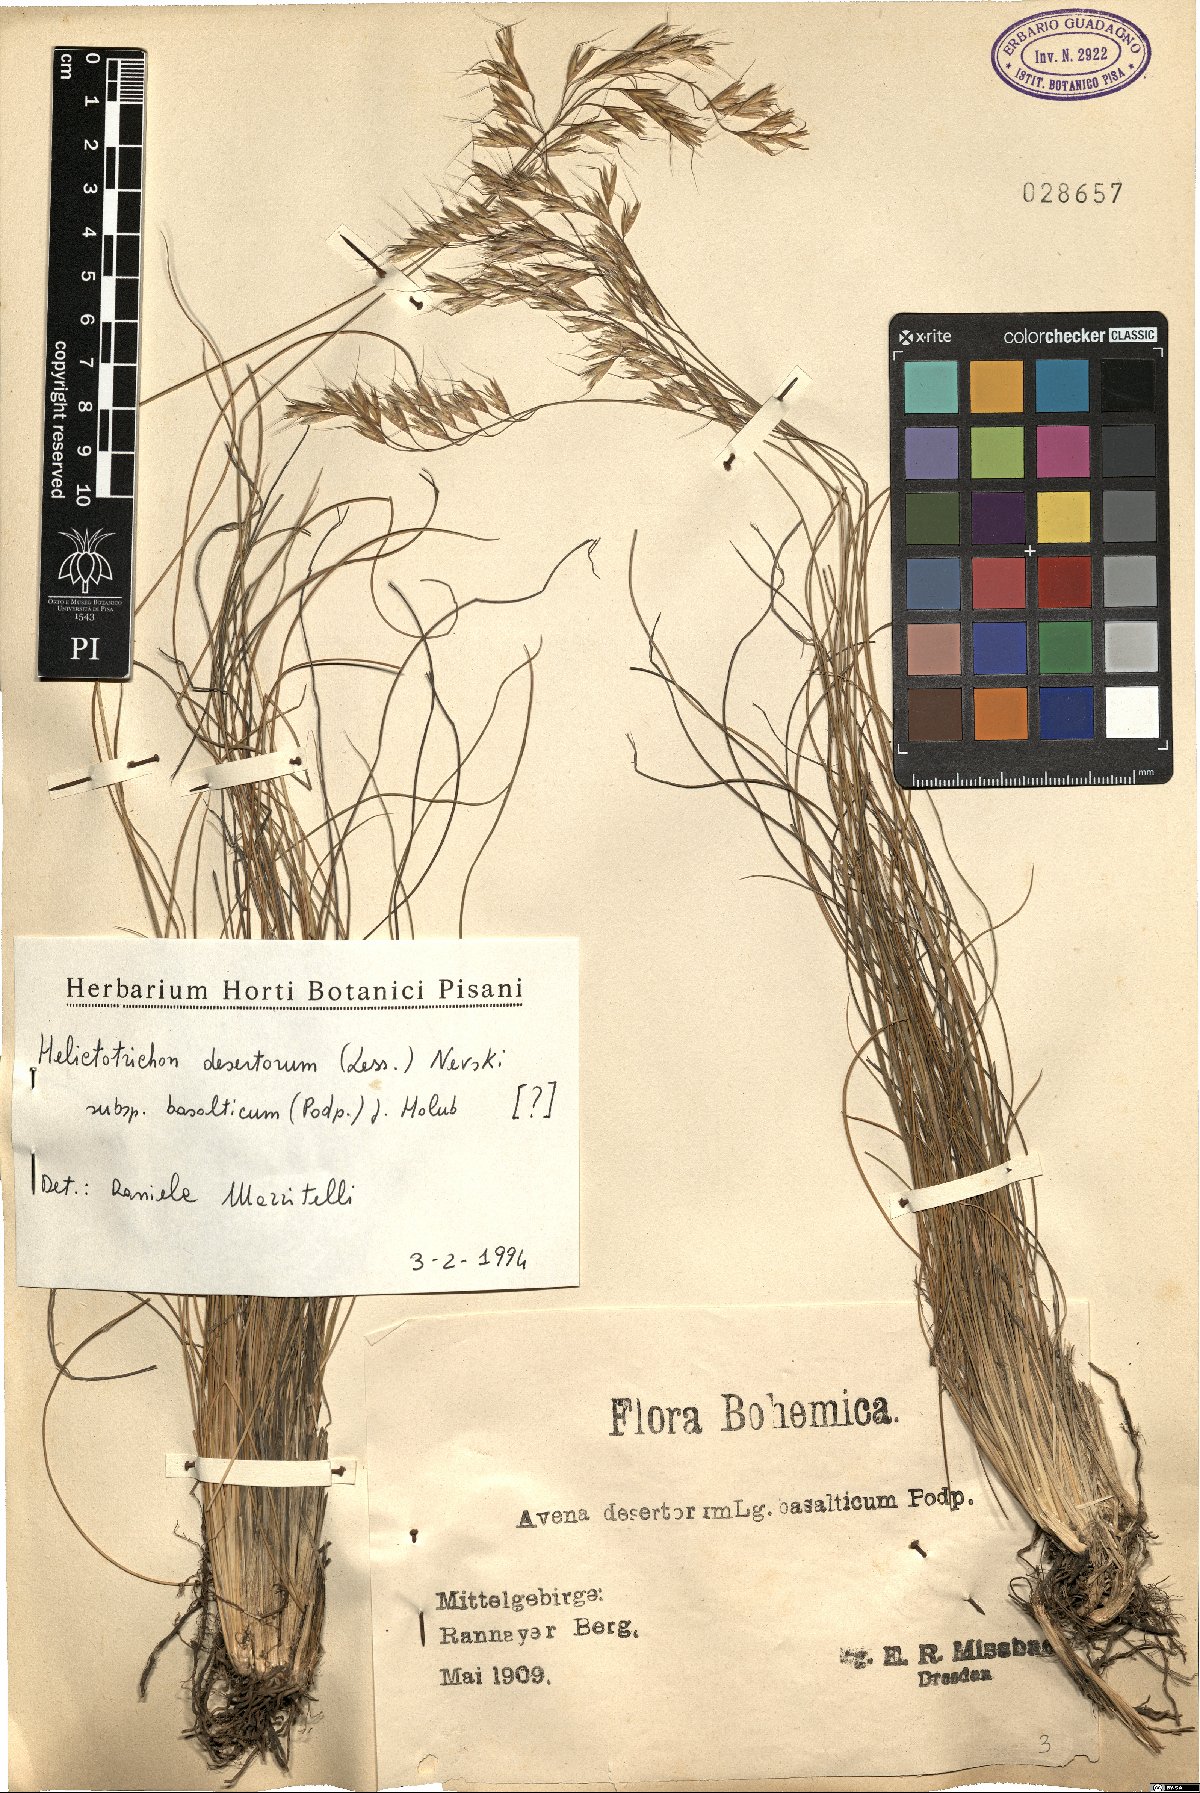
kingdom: Plantae
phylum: Tracheophyta
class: Liliopsida
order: Poales
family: Poaceae
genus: Helictotrichon
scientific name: Helictotrichon desertorum
